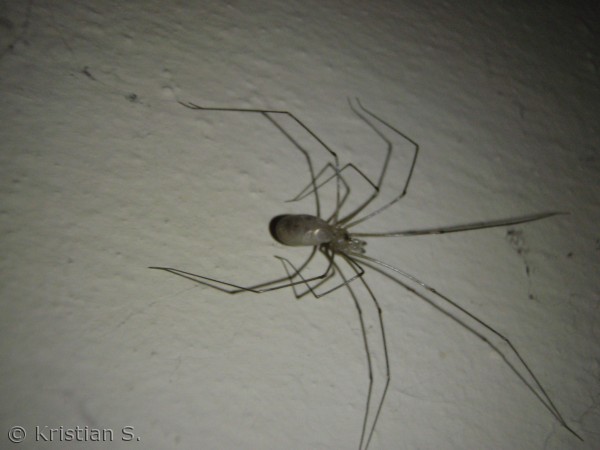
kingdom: Animalia
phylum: Arthropoda
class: Arachnida
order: Araneae
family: Pholcidae
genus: Pholcus
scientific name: Pholcus phalangioides
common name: Mejeredderkop
